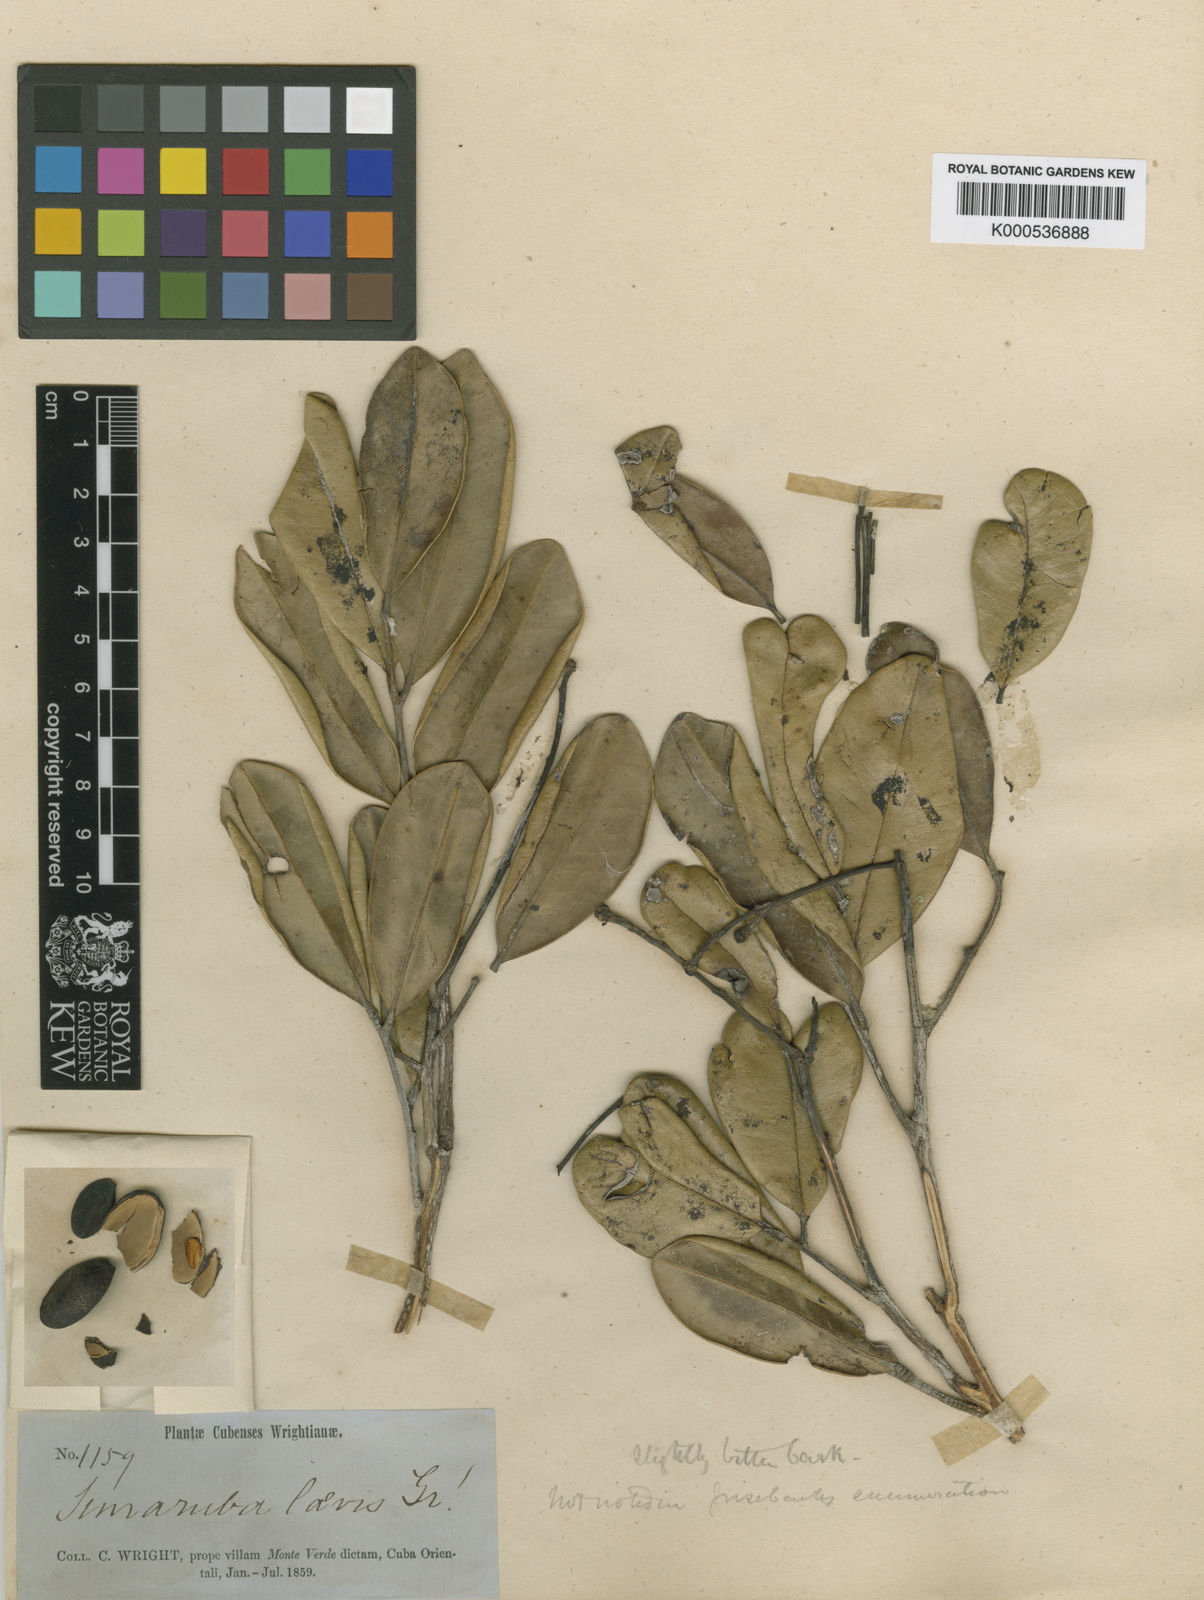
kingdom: Plantae
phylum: Tracheophyta
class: Magnoliopsida
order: Sapindales
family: Simaroubaceae
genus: Simarouba
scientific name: Simarouba laevis
